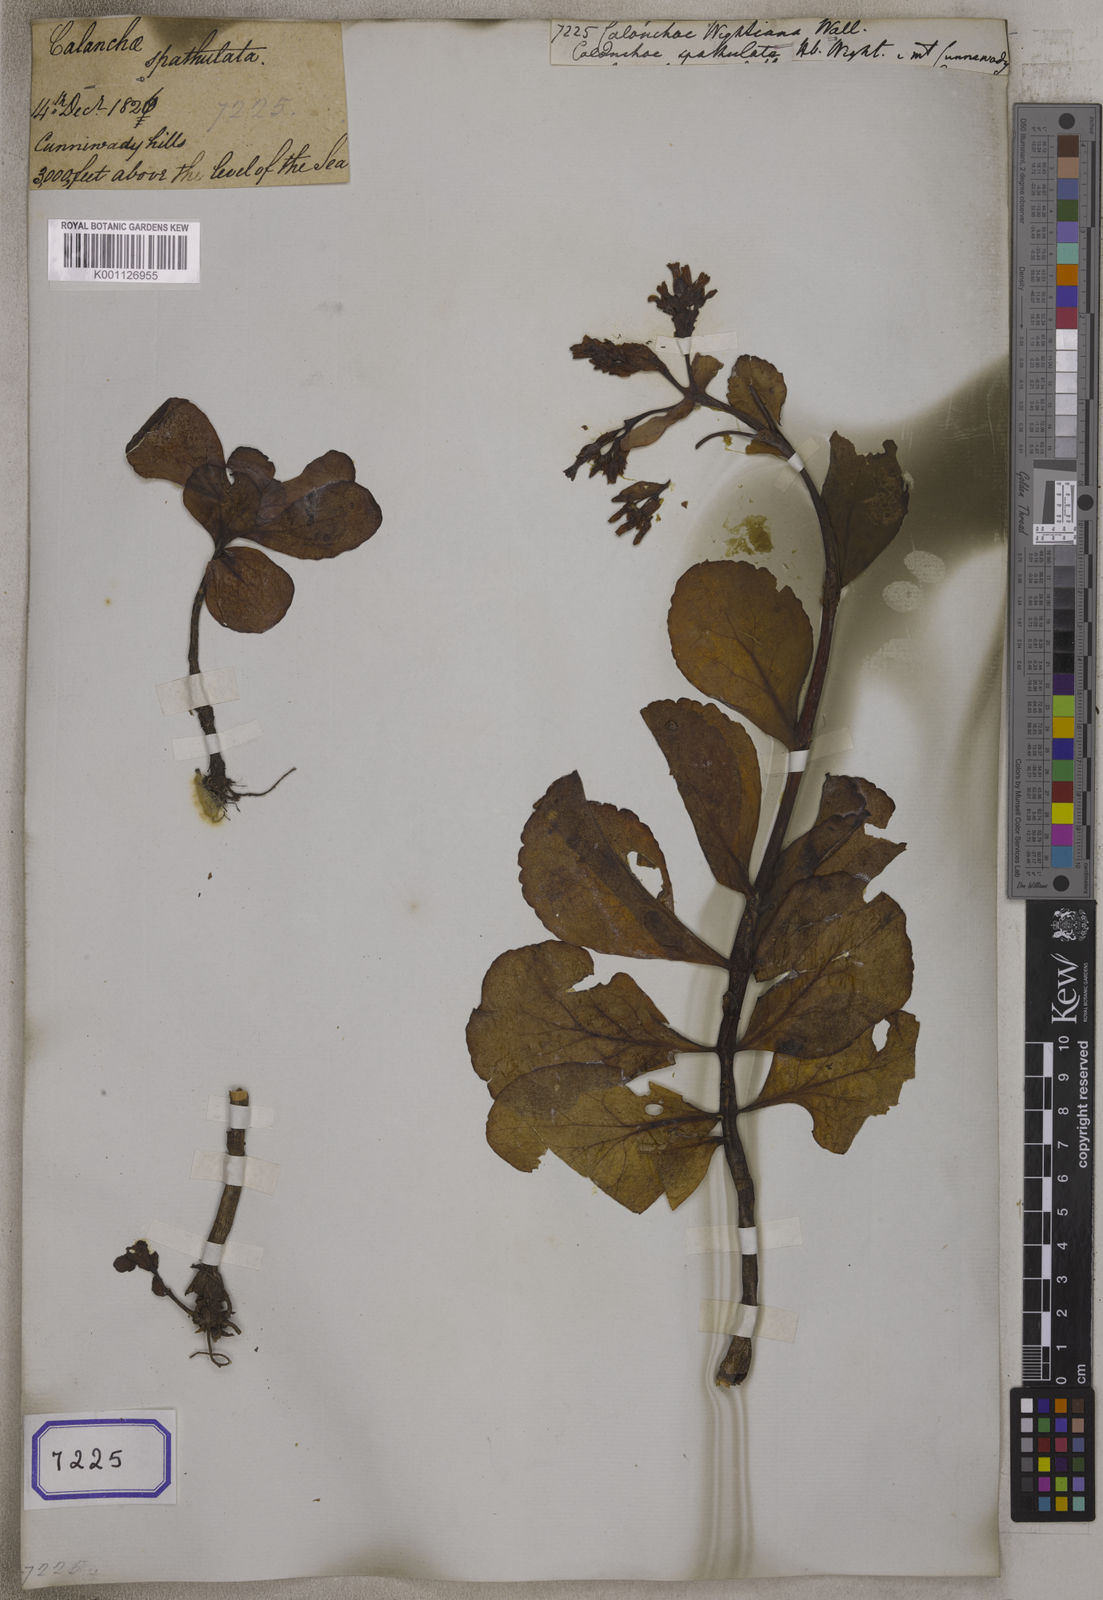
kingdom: Plantae
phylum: Tracheophyta
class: Magnoliopsida
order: Saxifragales
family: Crassulaceae
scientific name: Crassulaceae
